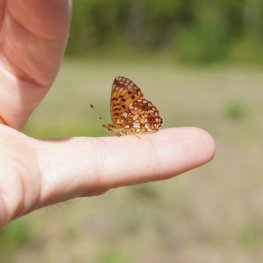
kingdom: Animalia
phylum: Arthropoda
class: Insecta
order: Lepidoptera
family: Nymphalidae
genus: Boloria
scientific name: Boloria selene
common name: Silver-bordered Fritillary
